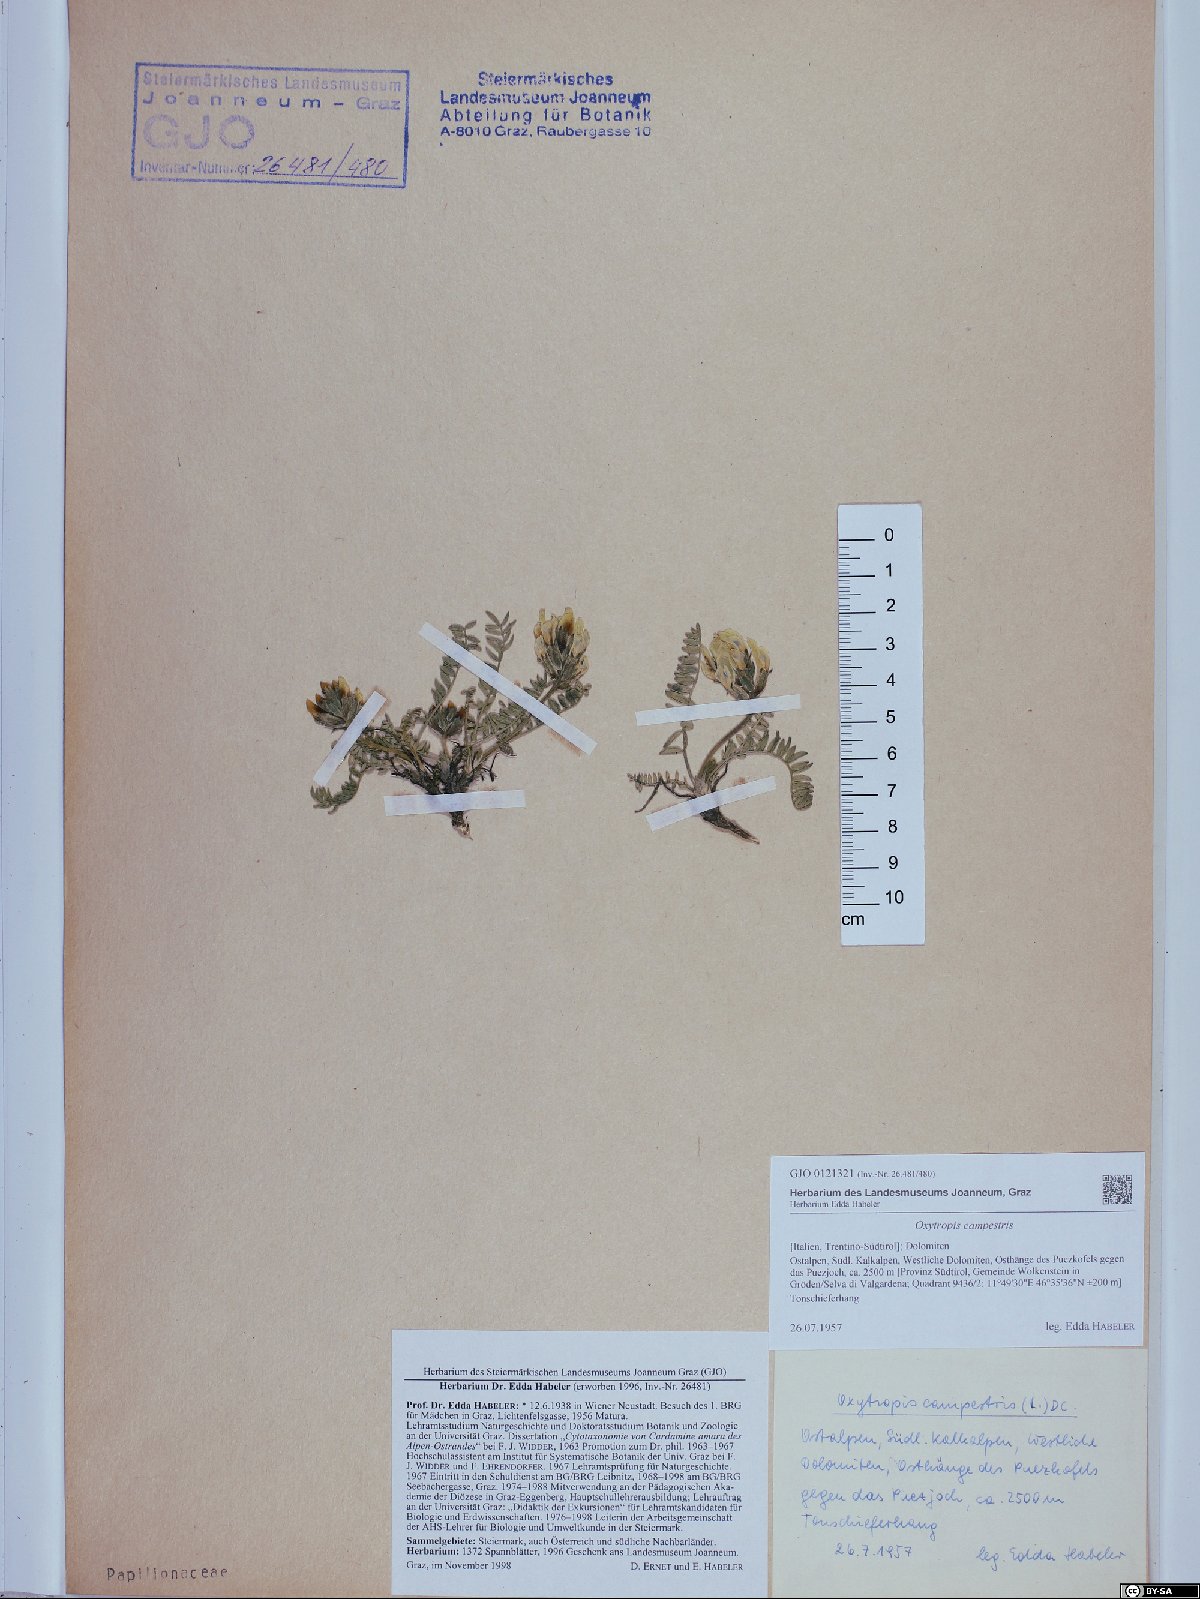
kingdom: Plantae
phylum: Tracheophyta
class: Magnoliopsida
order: Fabales
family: Fabaceae
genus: Oxytropis
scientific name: Oxytropis campestris
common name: Field locoweed
